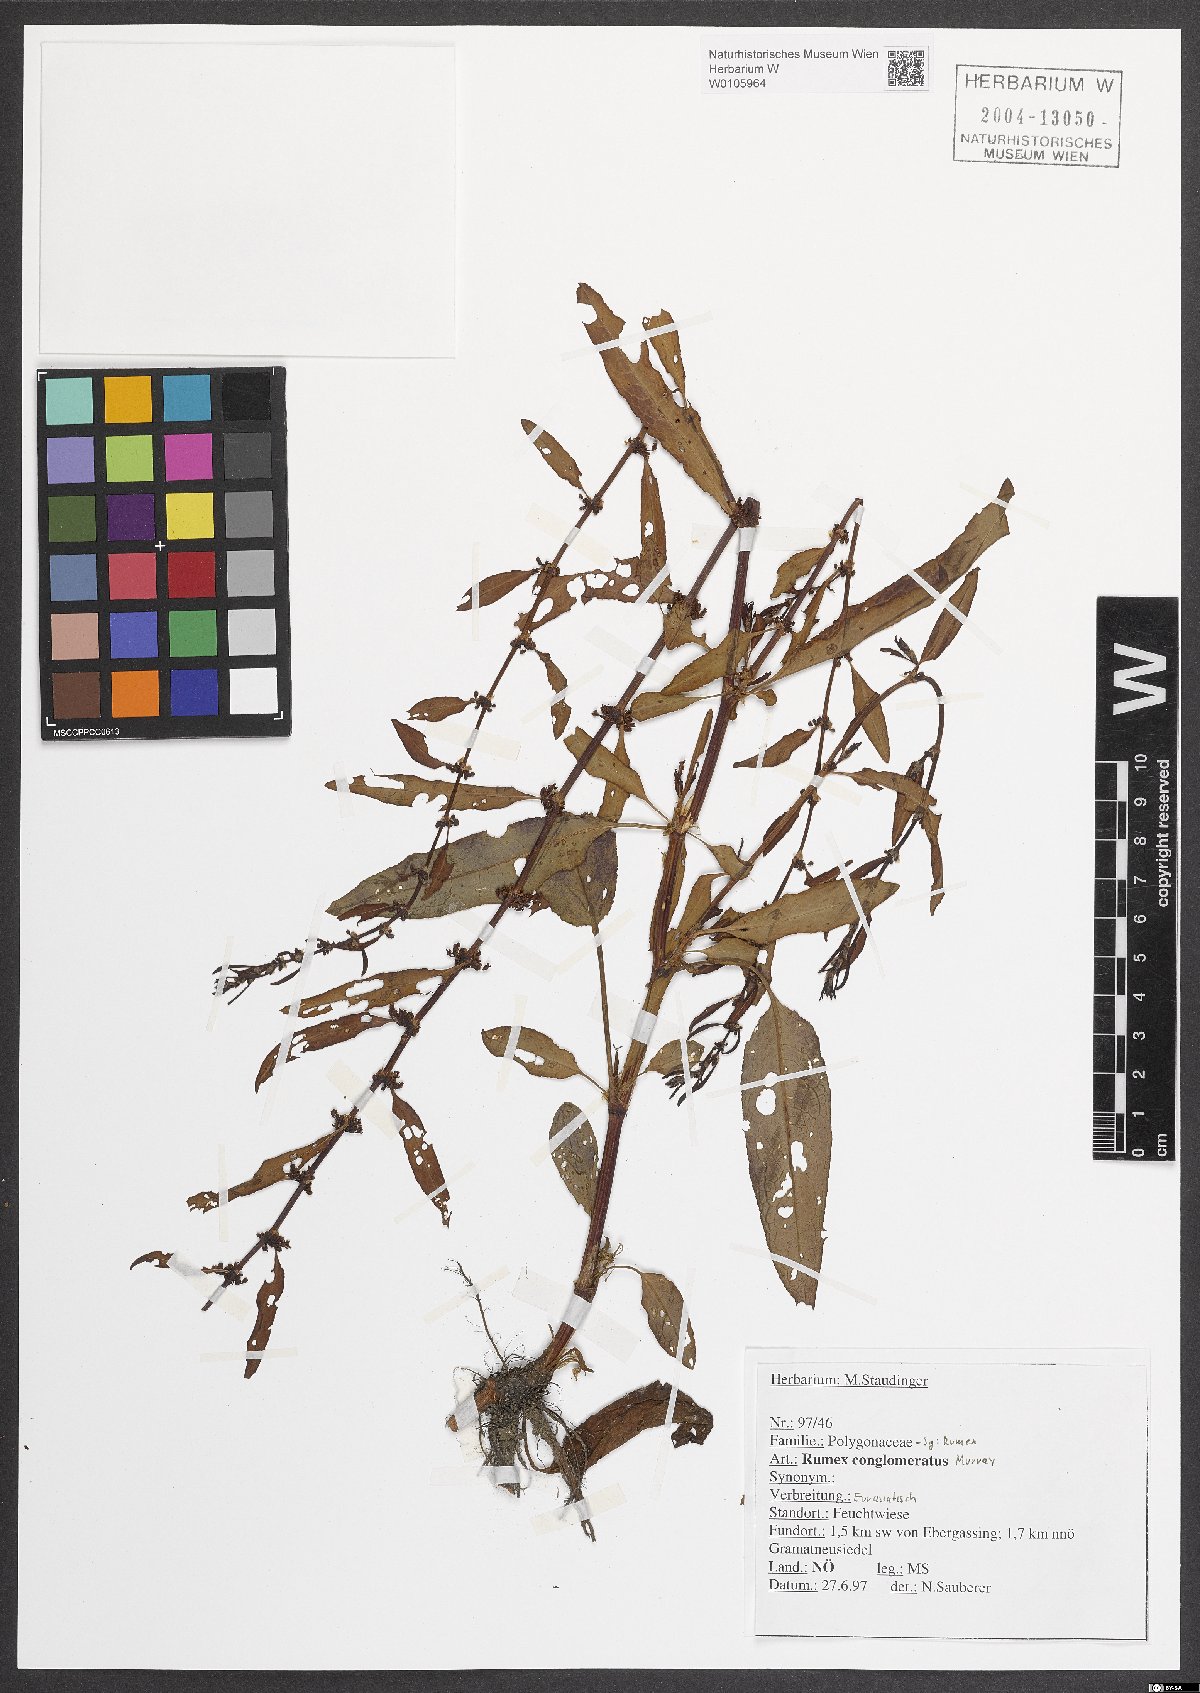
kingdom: Plantae
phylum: Tracheophyta
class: Magnoliopsida
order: Caryophyllales
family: Polygonaceae
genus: Rumex
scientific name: Rumex conglomeratus
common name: Clustered dock
